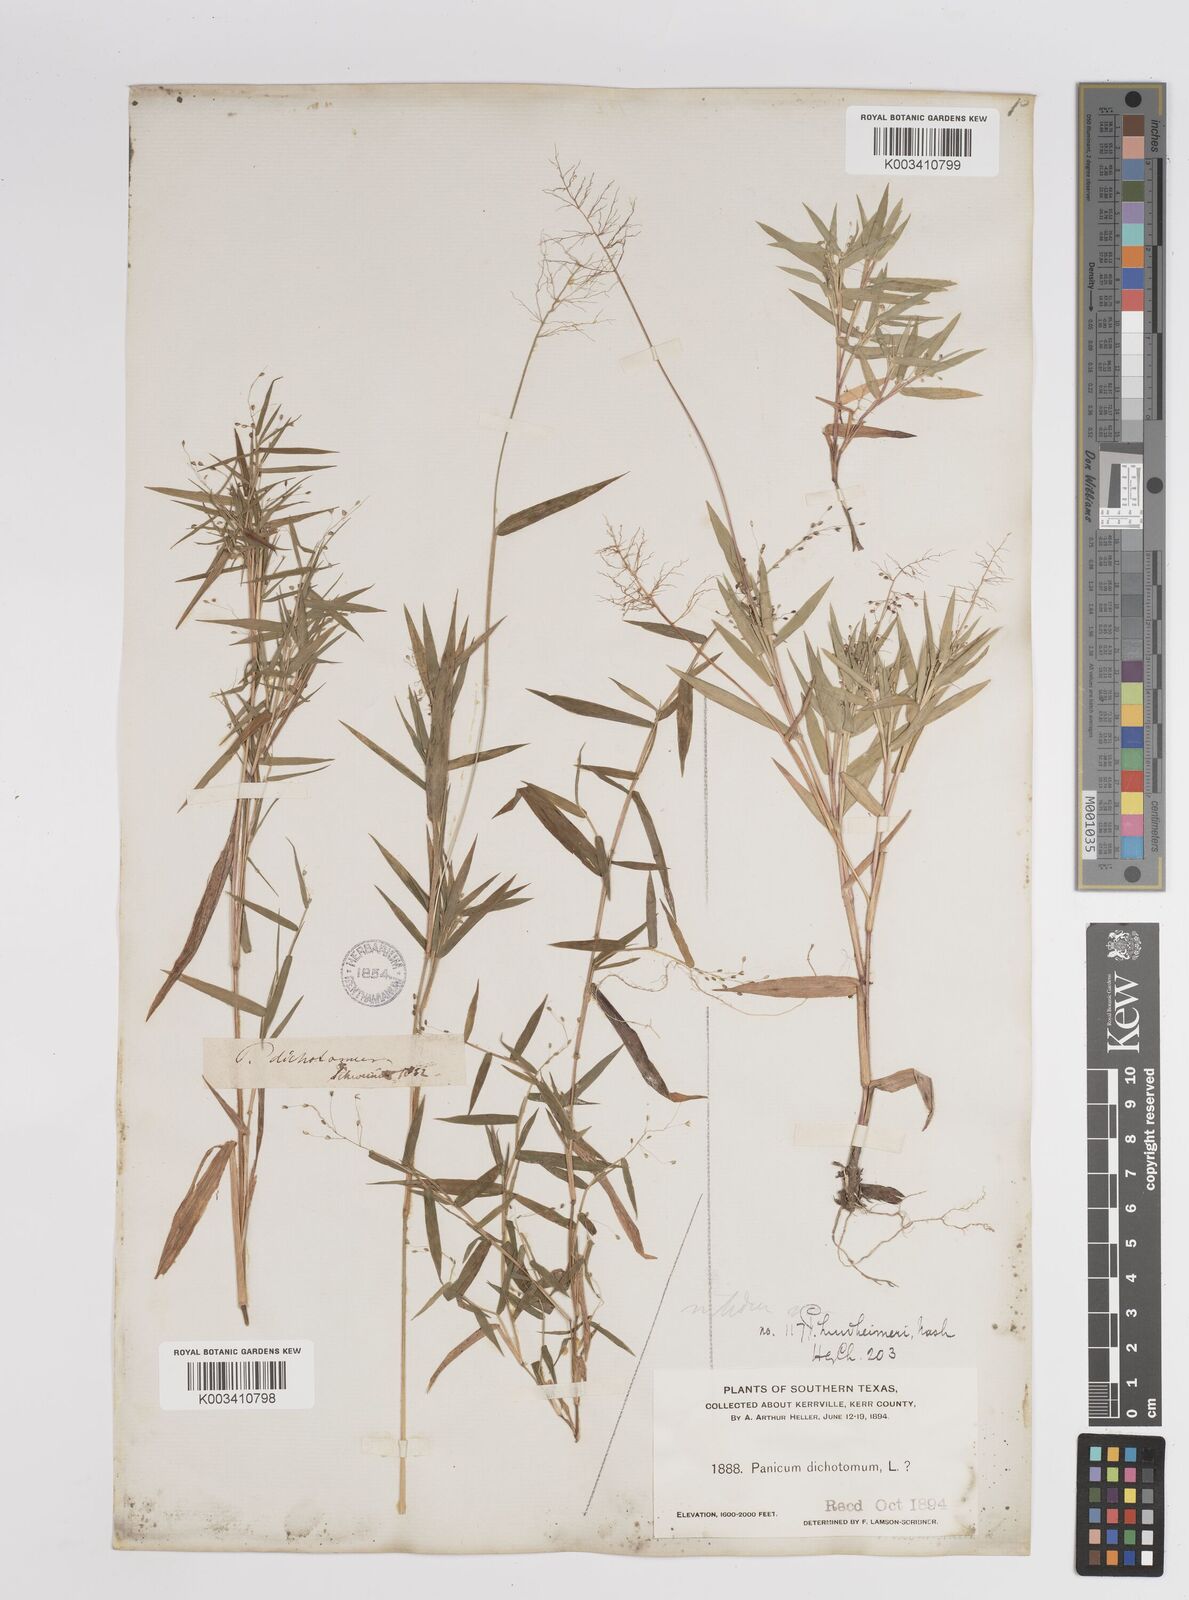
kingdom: Plantae
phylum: Tracheophyta
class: Liliopsida
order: Poales
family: Poaceae
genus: Dichanthelium
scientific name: Dichanthelium acuminatum
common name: Hairy panic grass
